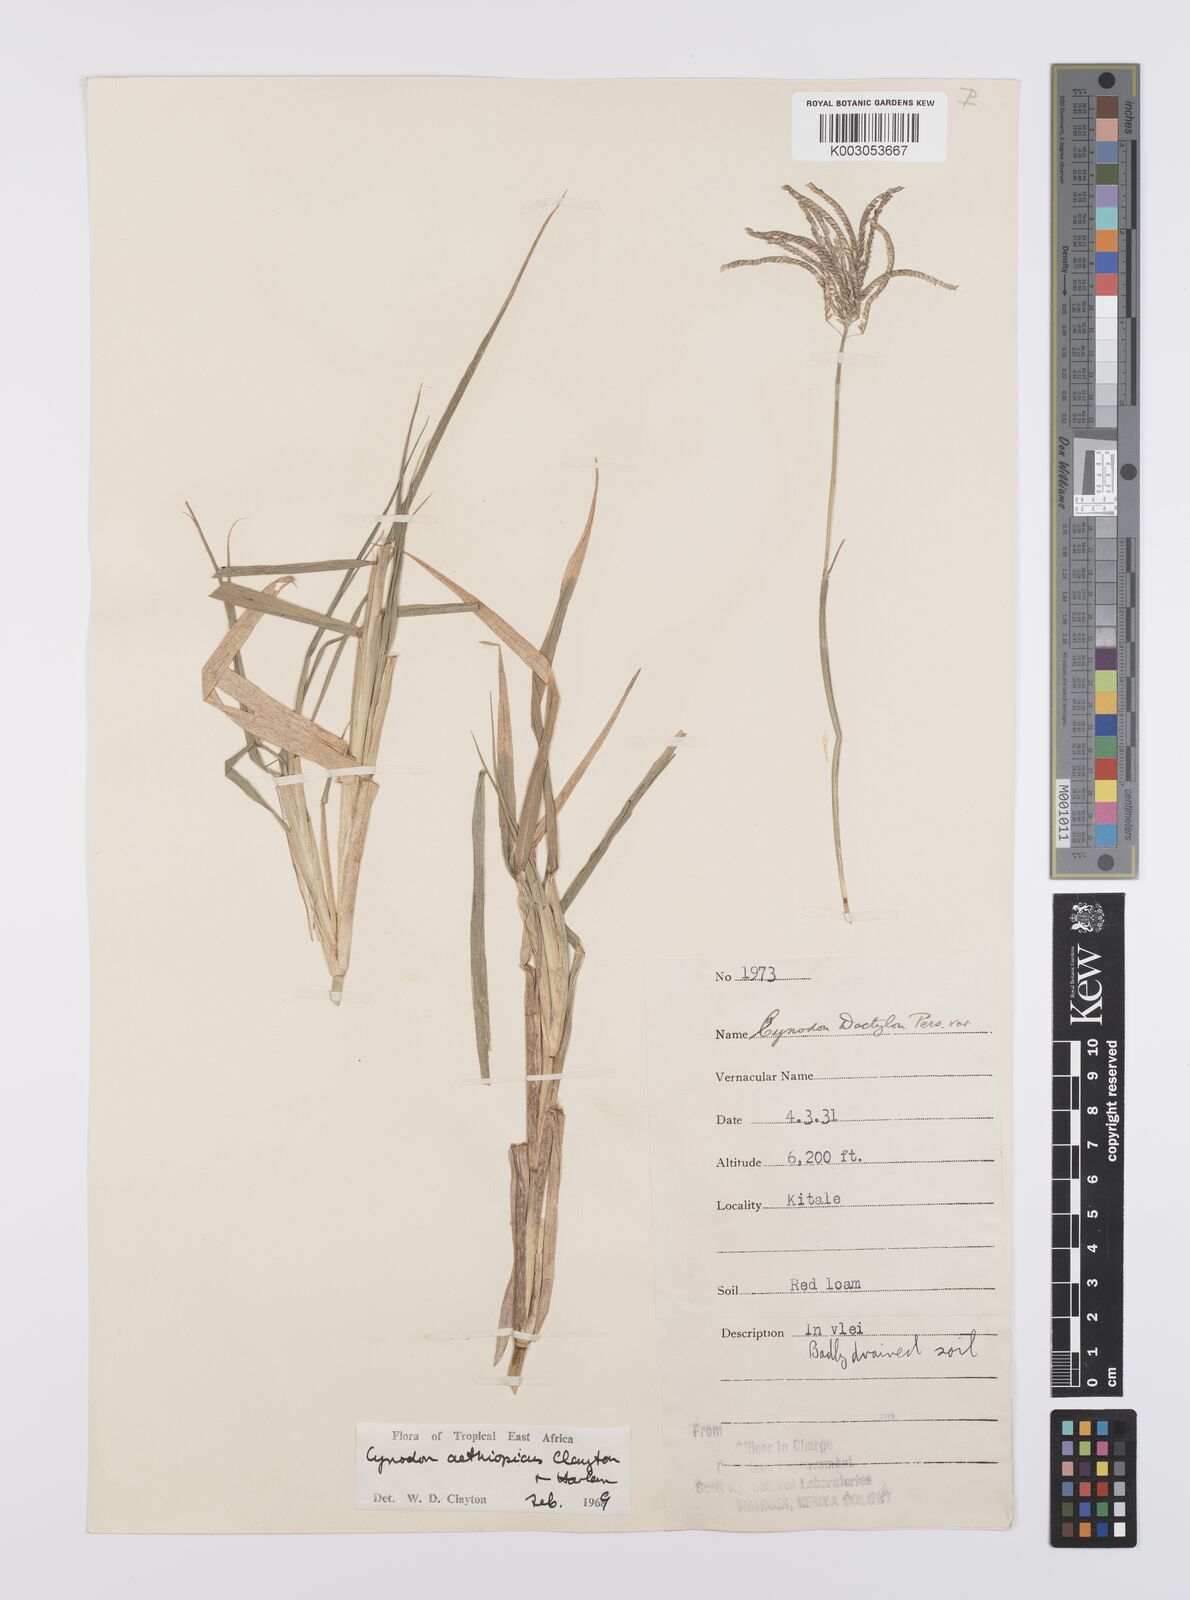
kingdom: Plantae
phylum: Tracheophyta
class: Liliopsida
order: Poales
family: Poaceae
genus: Cynodon
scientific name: Cynodon aethiopicus
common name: Ethiopian dogstooth grass
